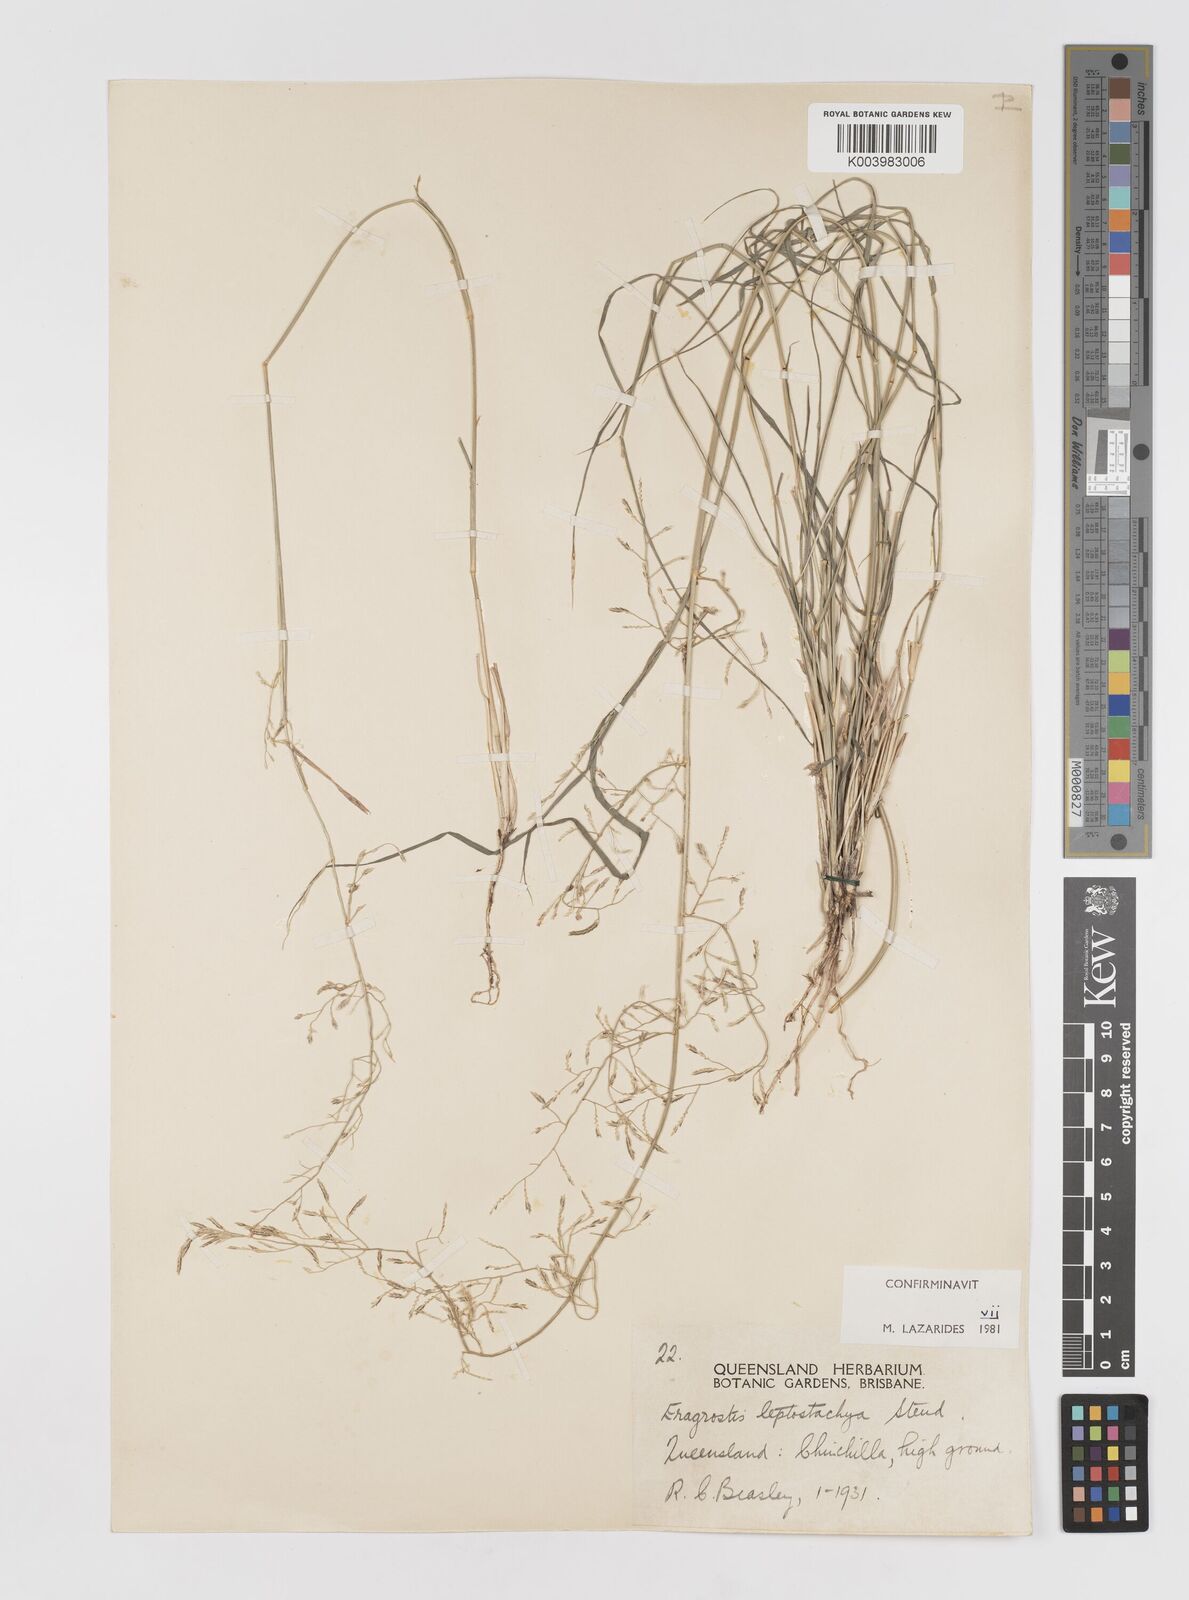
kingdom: Plantae
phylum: Tracheophyta
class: Liliopsida
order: Poales
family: Poaceae
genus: Eragrostis
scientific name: Eragrostis leptostachya
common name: Australian lovegrass
